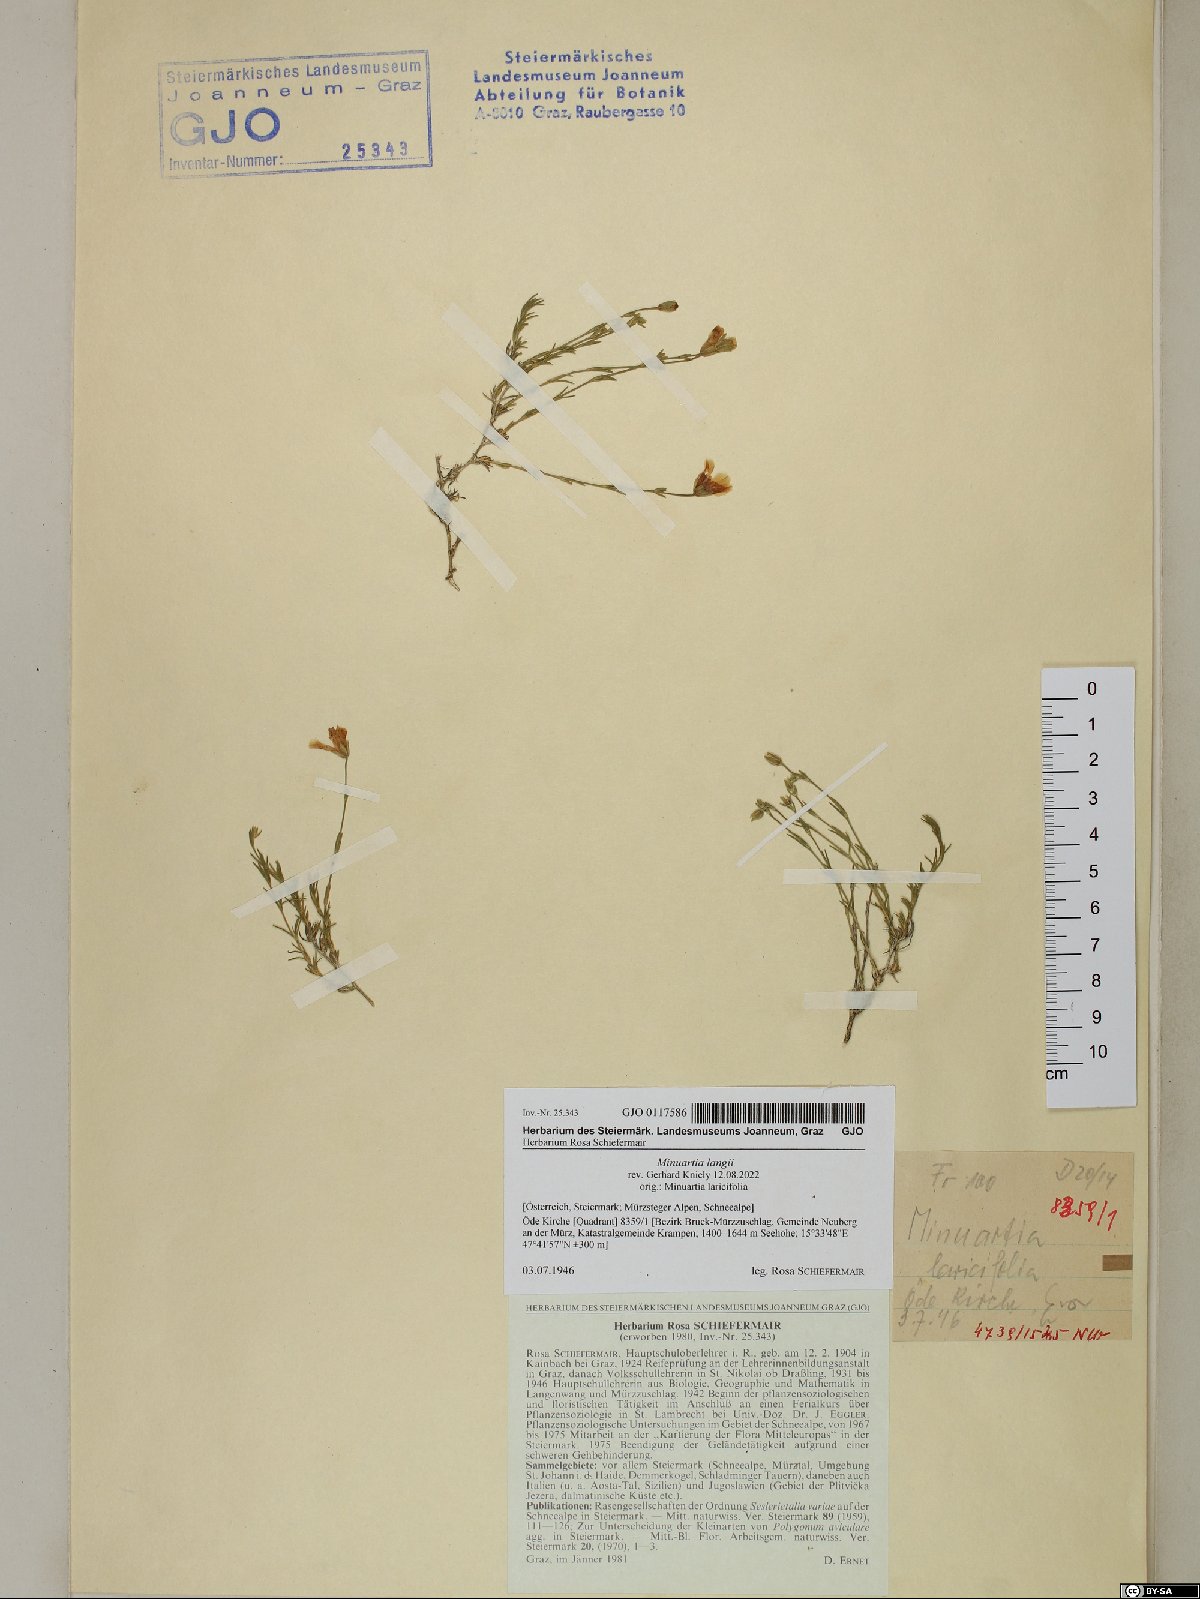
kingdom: Plantae
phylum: Tracheophyta
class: Magnoliopsida
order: Caryophyllales
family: Caryophyllaceae
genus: Cherleria
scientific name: Cherleria langii
